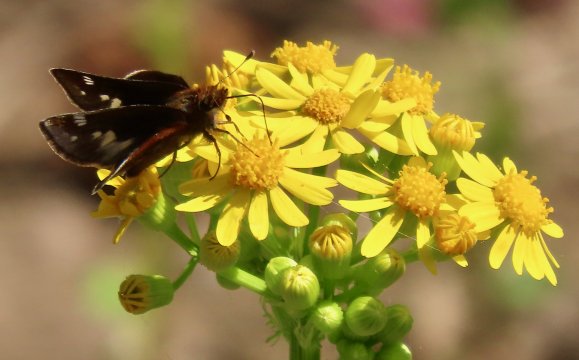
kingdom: Animalia
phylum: Arthropoda
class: Insecta
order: Lepidoptera
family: Hesperiidae
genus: Lon
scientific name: Lon zabulon
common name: Zabulon Skipper
